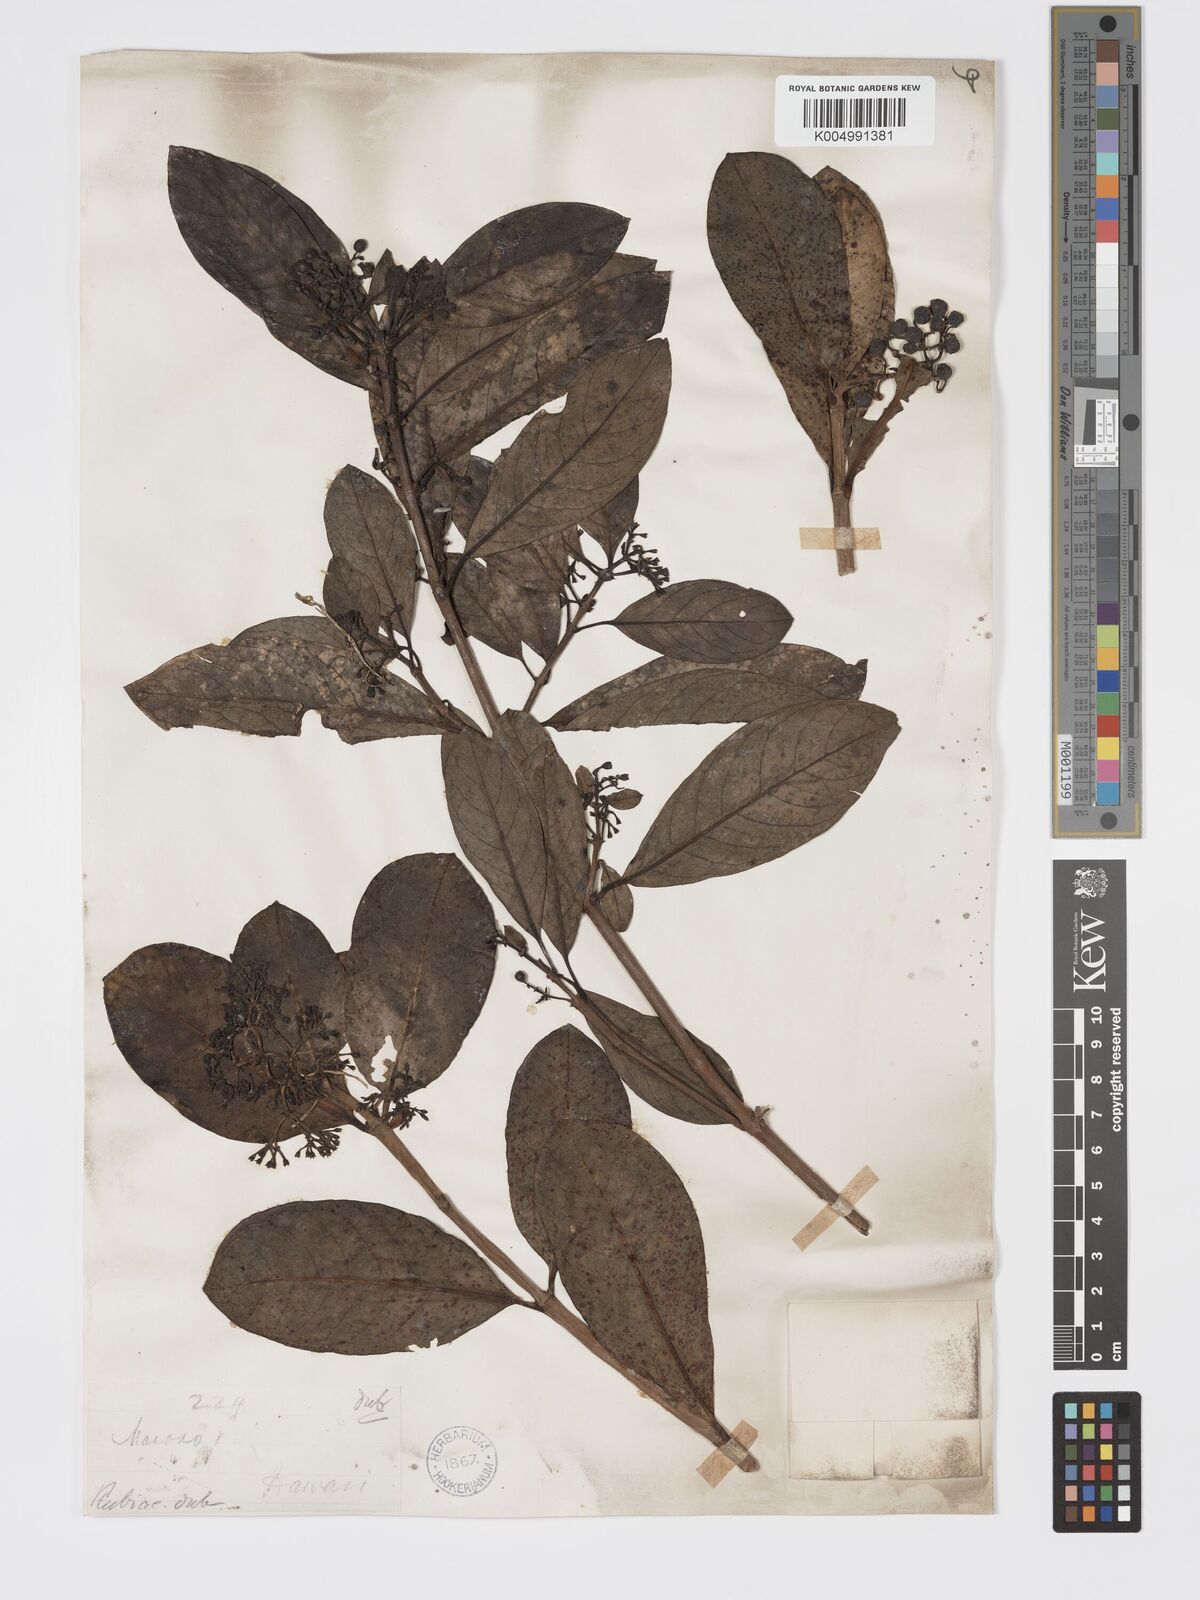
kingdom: Plantae
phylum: Tracheophyta
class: Magnoliopsida
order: Gentianales
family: Rubiaceae
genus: Kadua
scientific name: Kadua affinis
